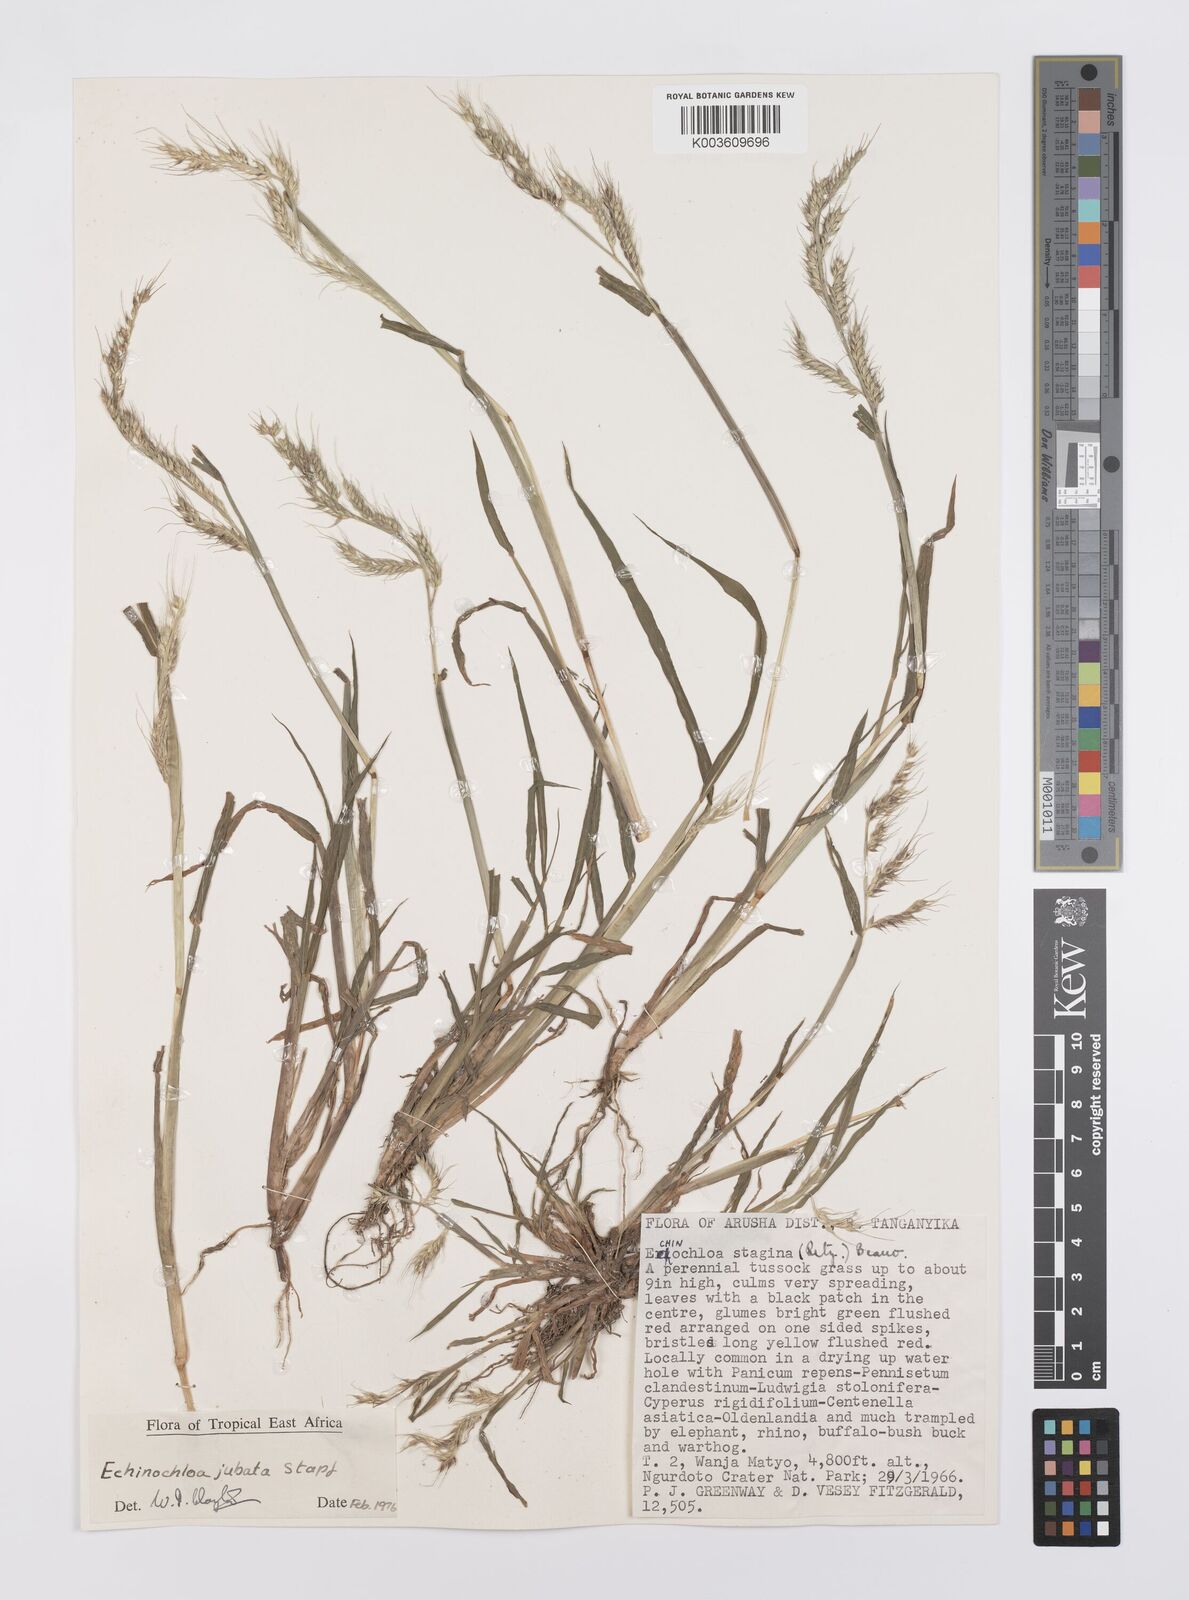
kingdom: Plantae
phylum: Tracheophyta
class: Liliopsida
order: Poales
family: Poaceae
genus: Echinochloa
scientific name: Echinochloa jubata
